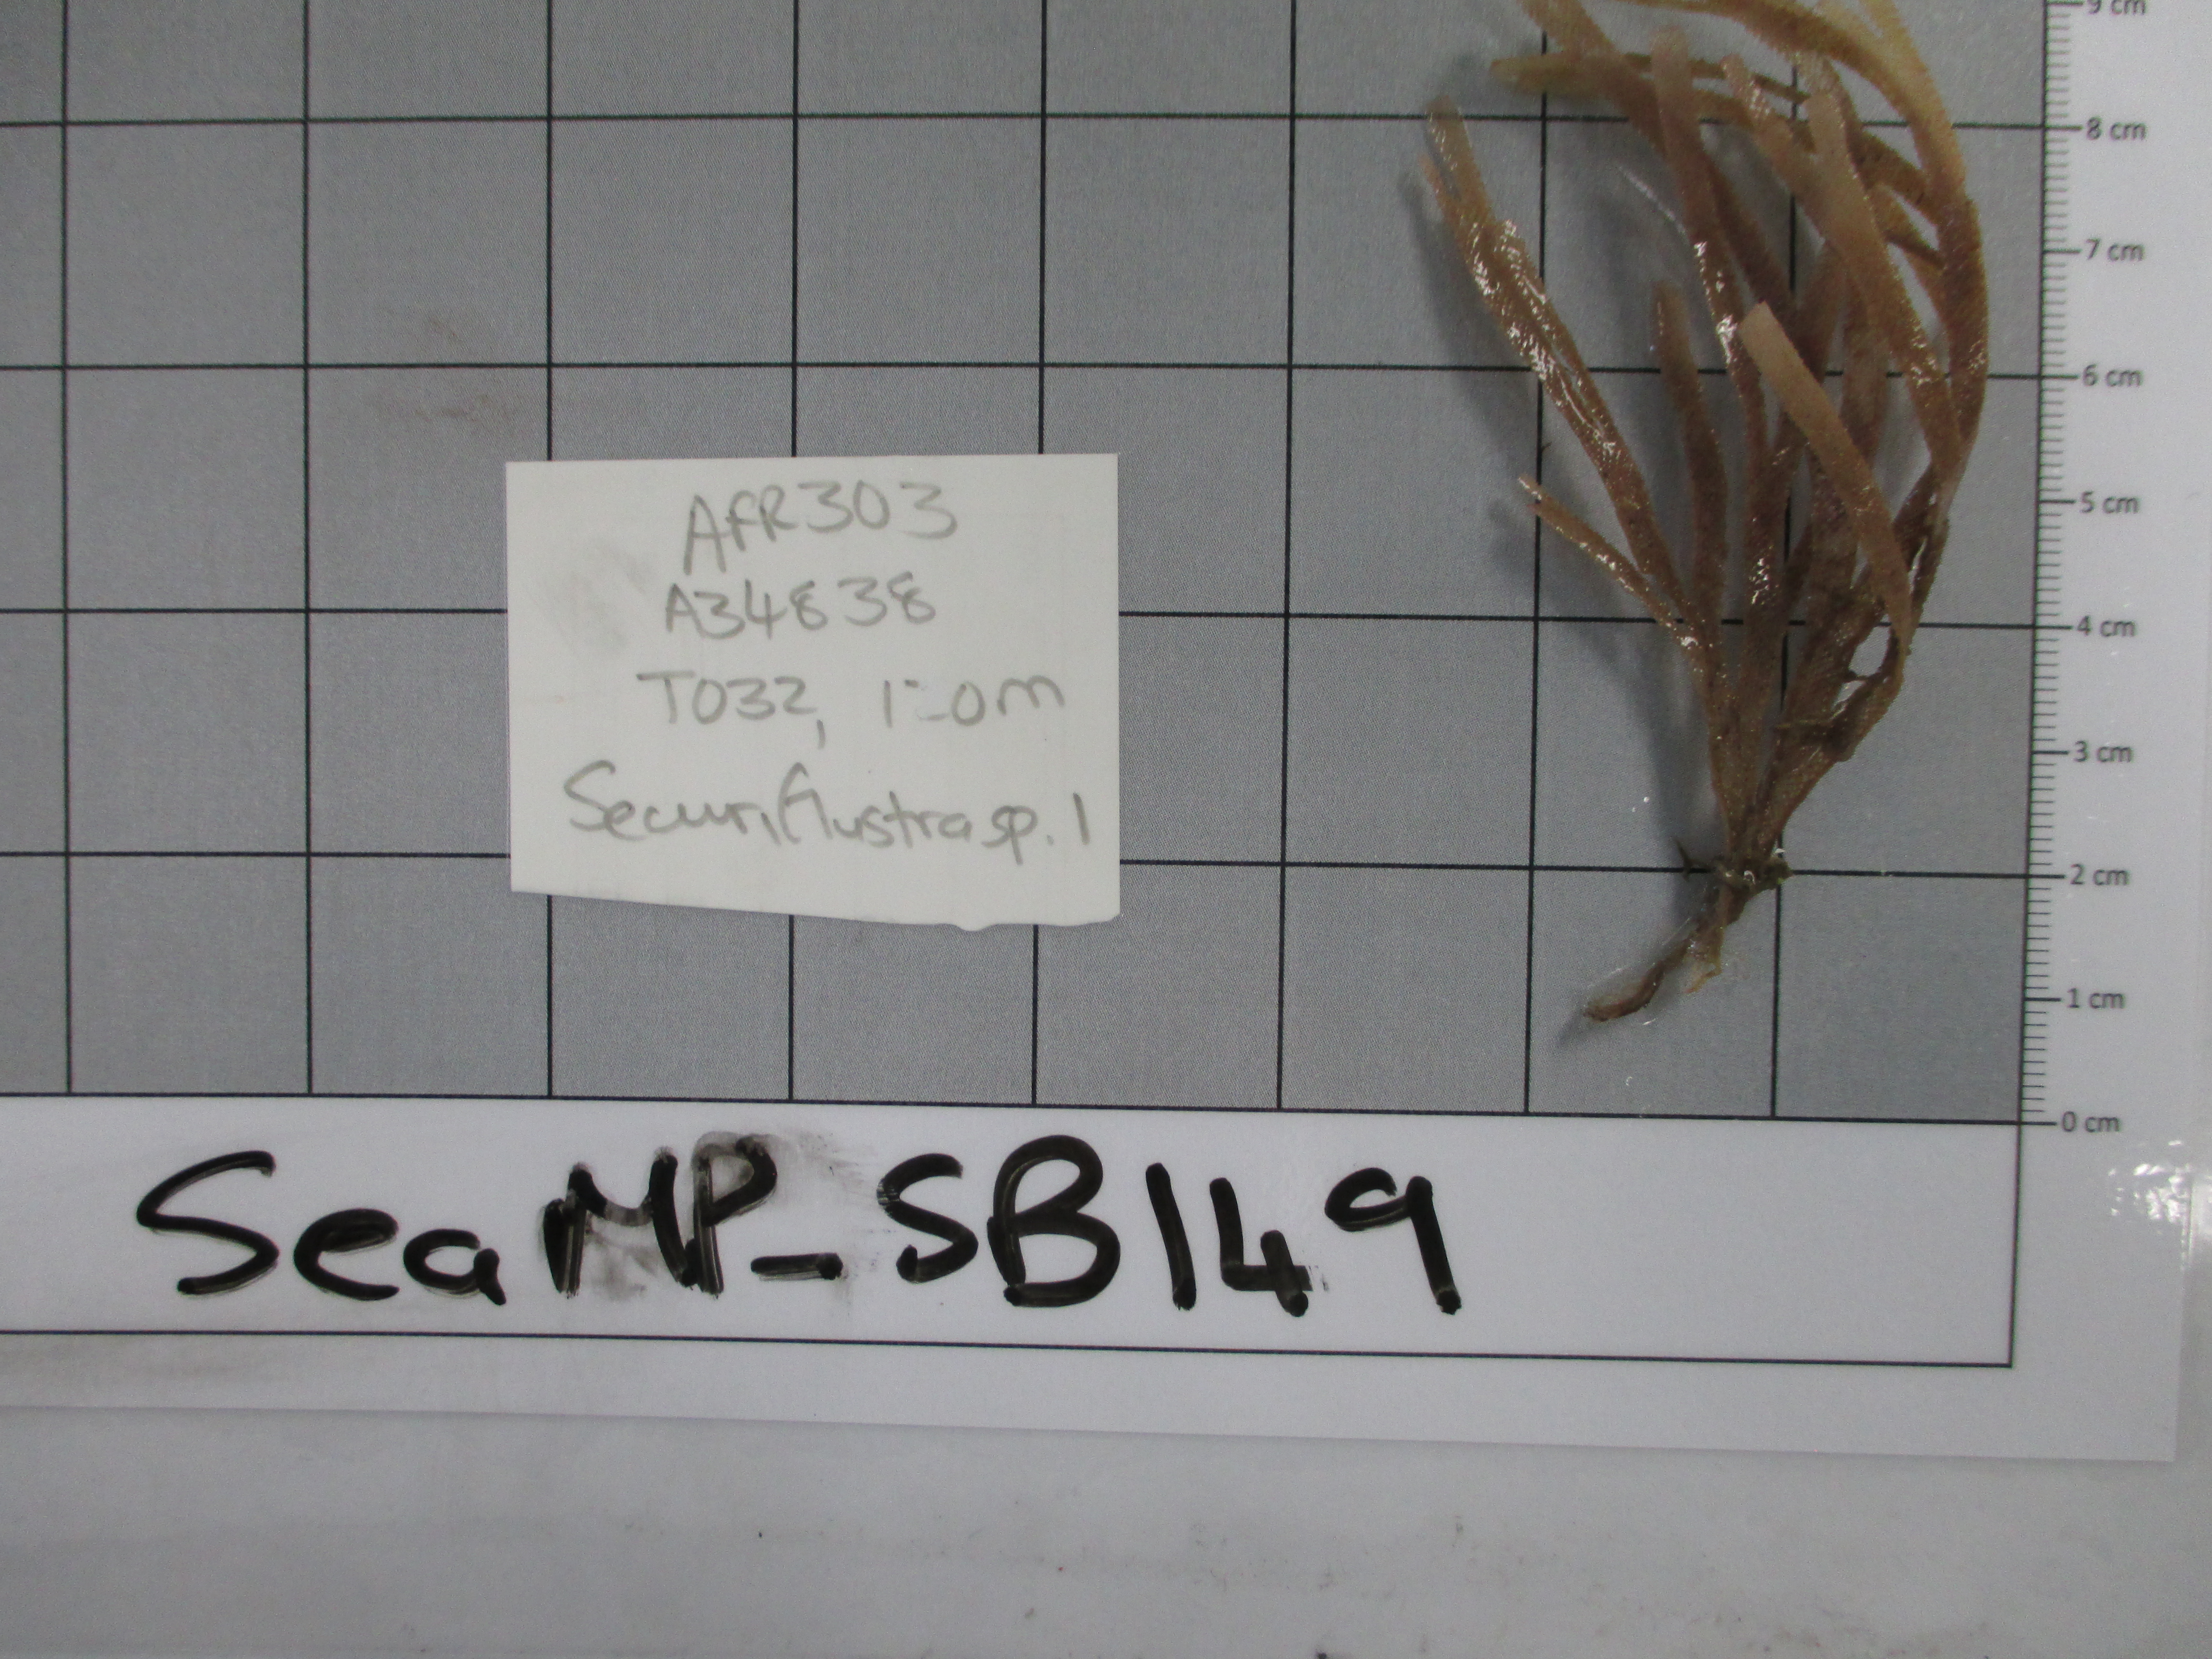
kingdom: Animalia
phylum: Bryozoa
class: Gymnolaemata
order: Cheilostomatida
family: Flustridae
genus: Securiflustra
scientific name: Securiflustra
